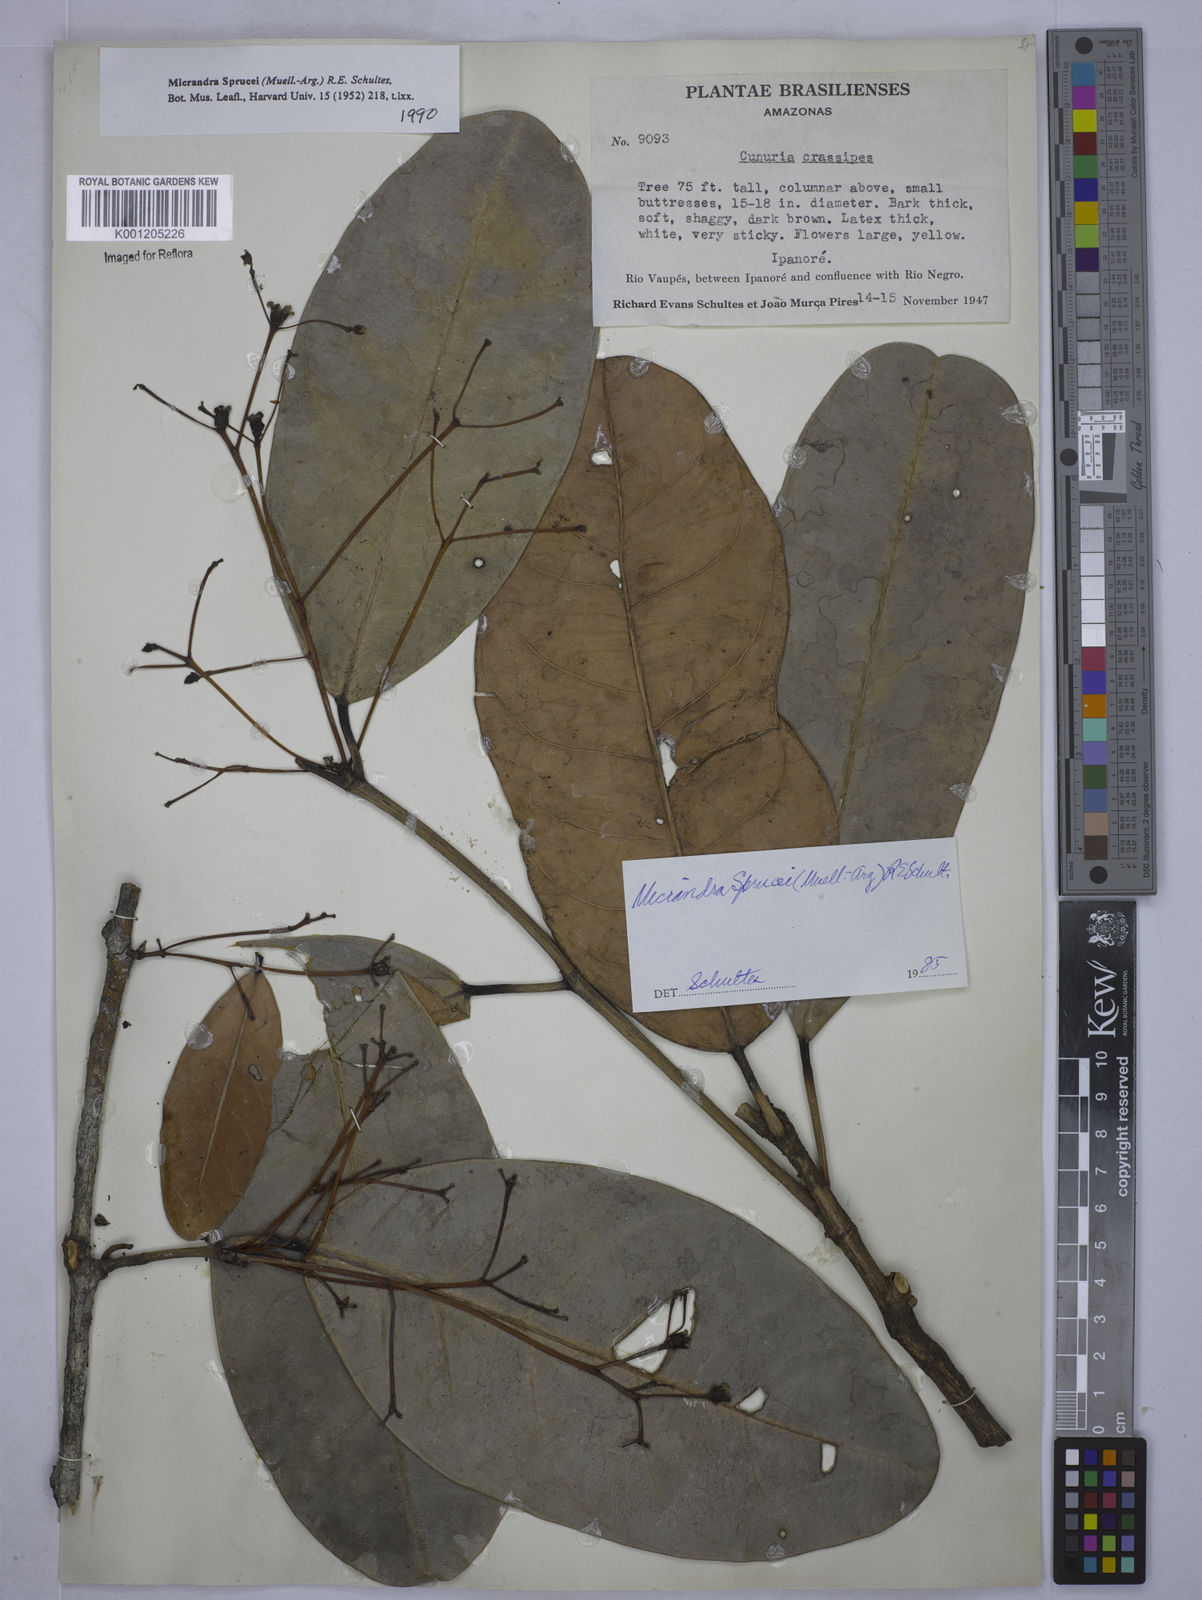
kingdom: Plantae
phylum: Tracheophyta
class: Magnoliopsida
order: Malpighiales
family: Euphorbiaceae
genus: Micrandra
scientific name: Micrandra
